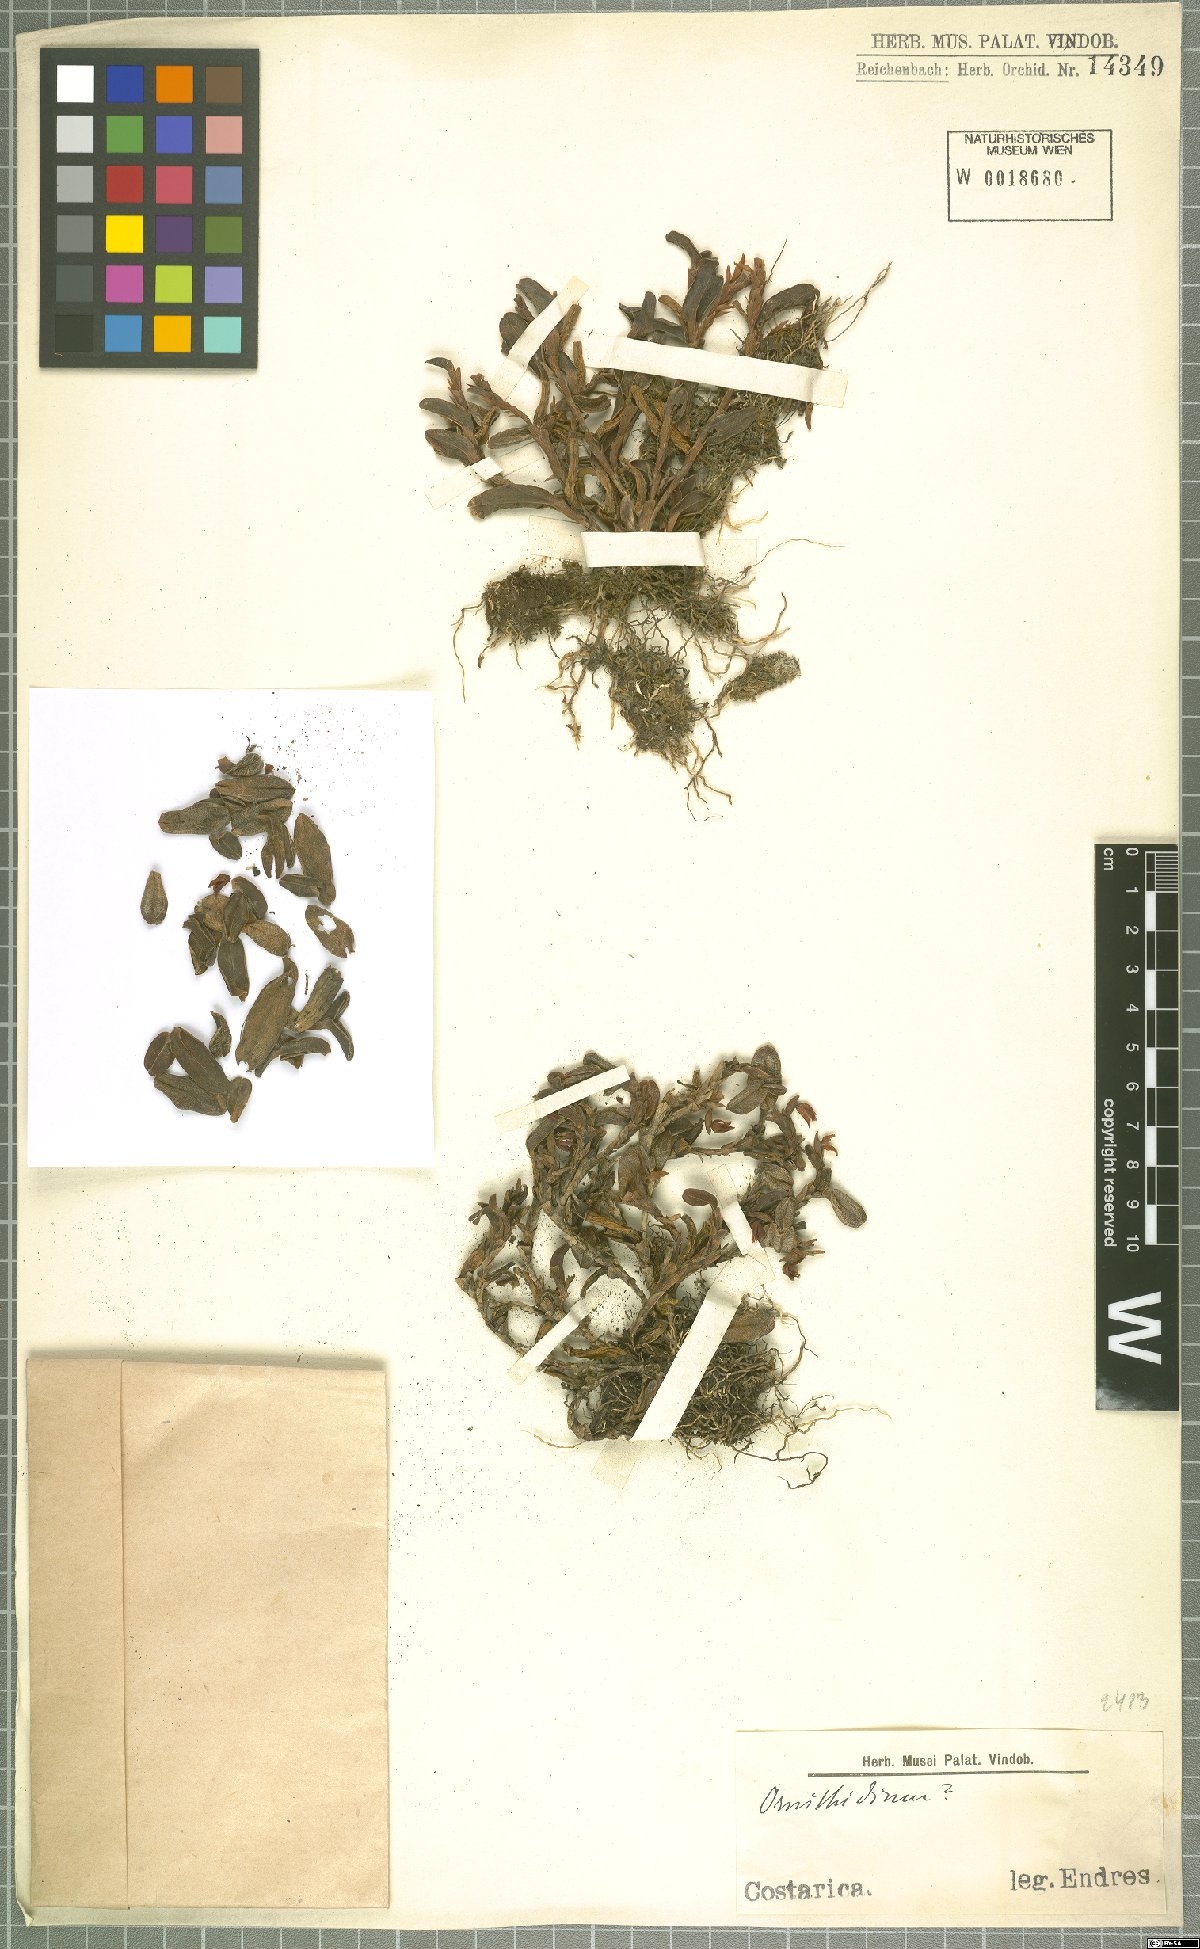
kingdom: Plantae
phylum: Tracheophyta
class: Liliopsida
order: Asparagales
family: Orchidaceae
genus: Maxillaria
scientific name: Maxillaria
